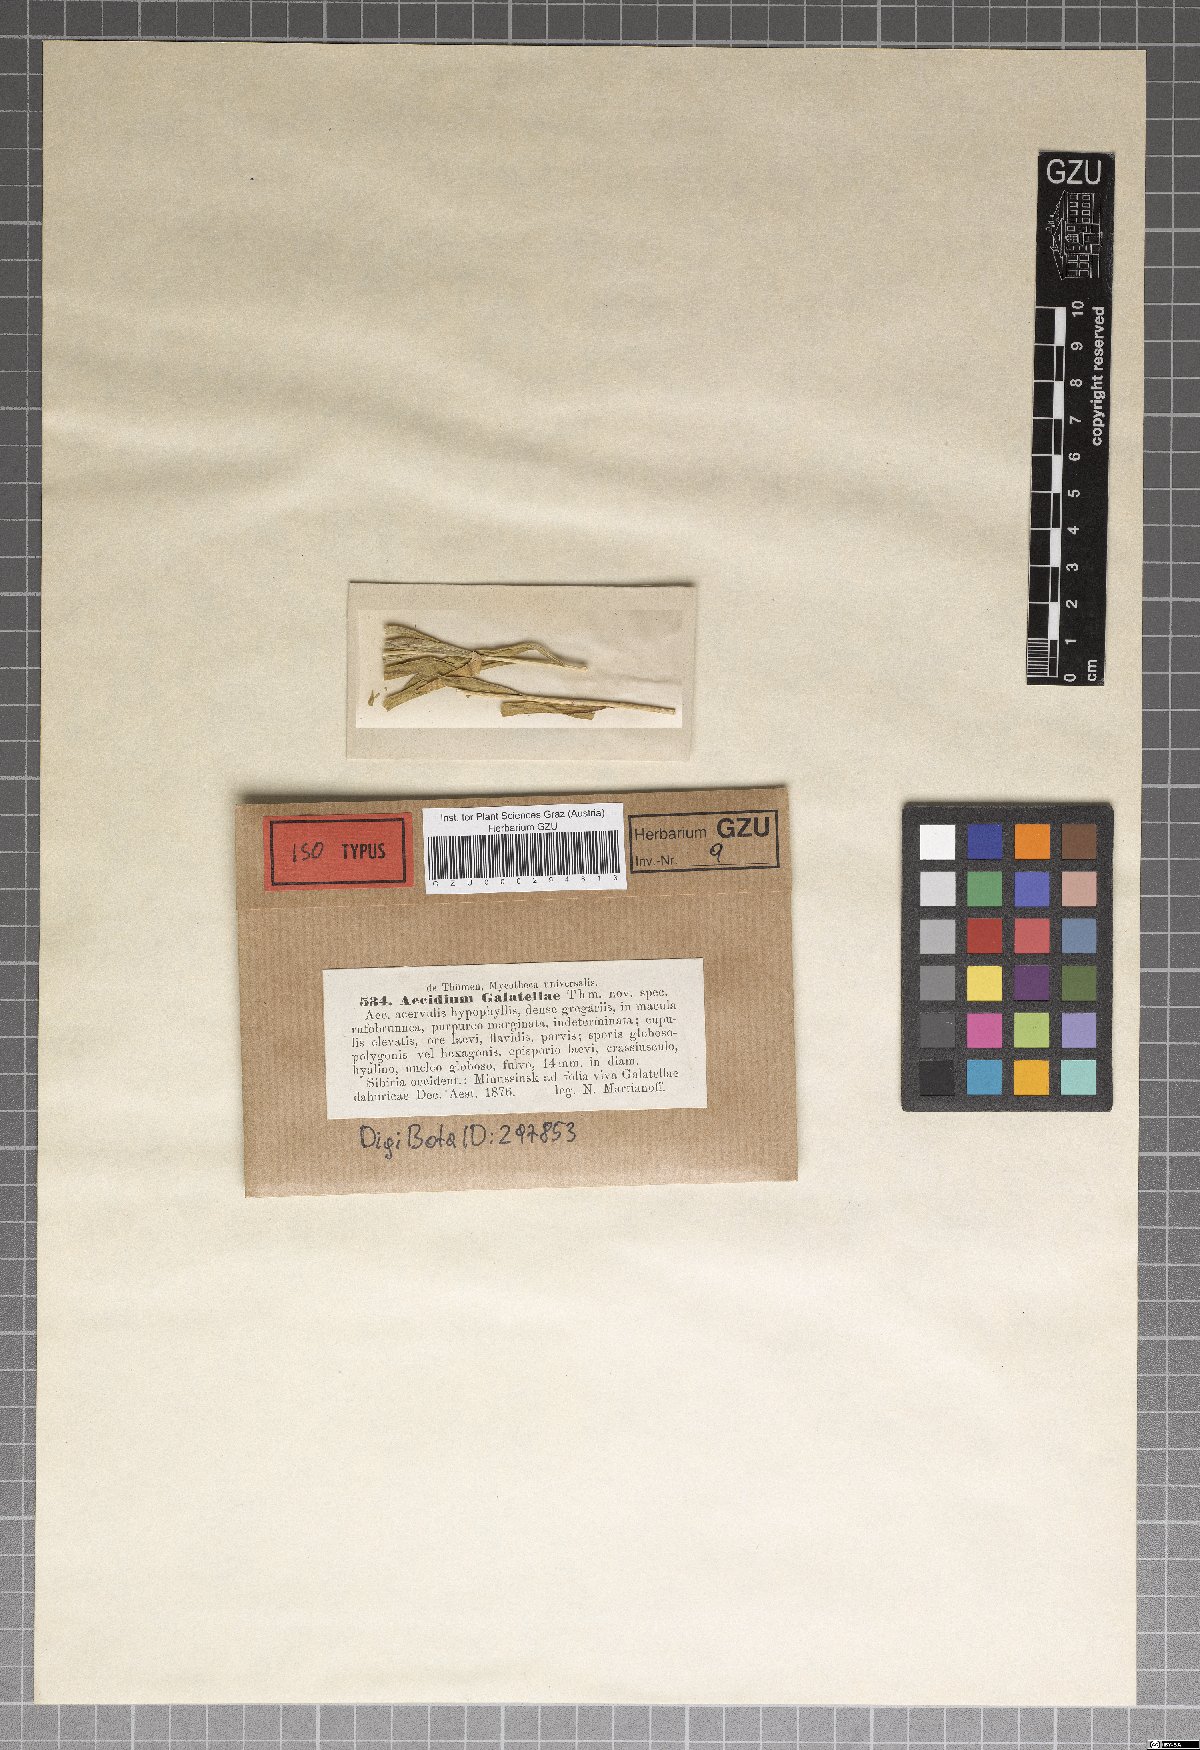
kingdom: Fungi
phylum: Basidiomycota
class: Pucciniomycetes
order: Pucciniales
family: Pucciniaceae
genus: Aecidium
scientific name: Aecidium
